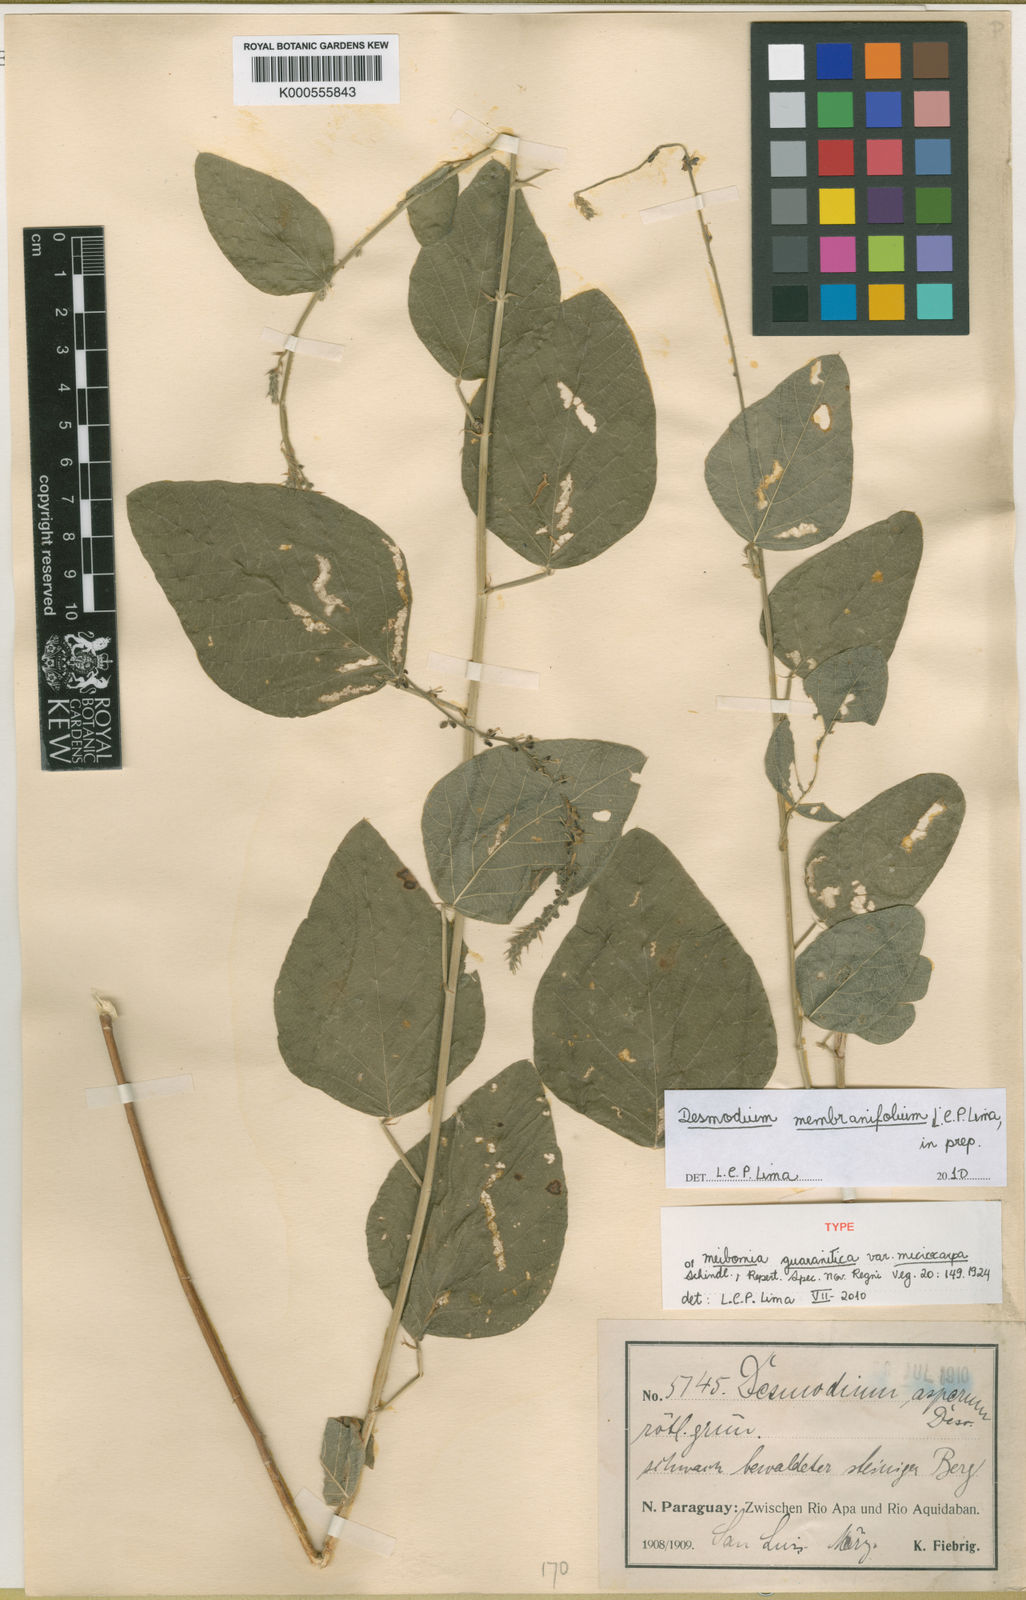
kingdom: Plantae
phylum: Tracheophyta
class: Magnoliopsida
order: Fabales
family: Fabaceae
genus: Desmodium
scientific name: Desmodium membranifolium
